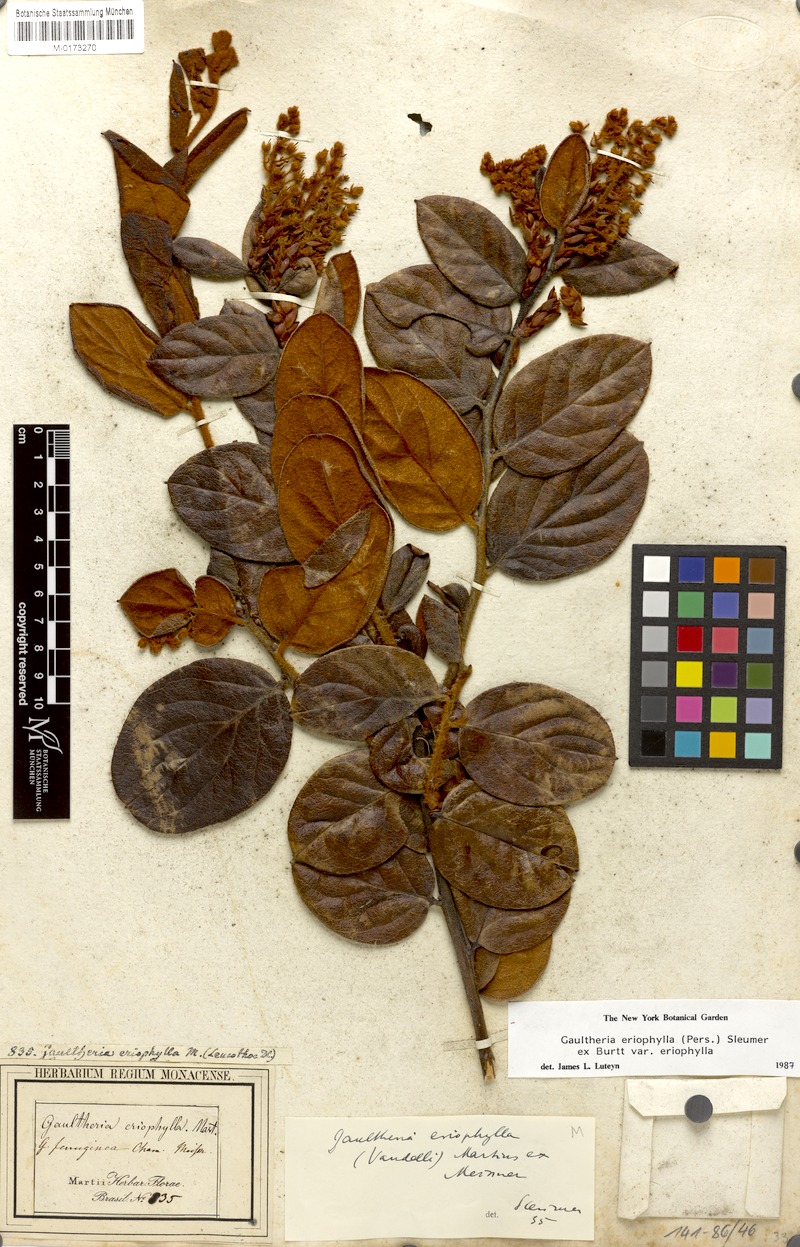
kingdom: Plantae
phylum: Tracheophyta
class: Magnoliopsida
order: Ericales
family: Ericaceae
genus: Gaultheria
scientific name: Gaultheria eriophylla
